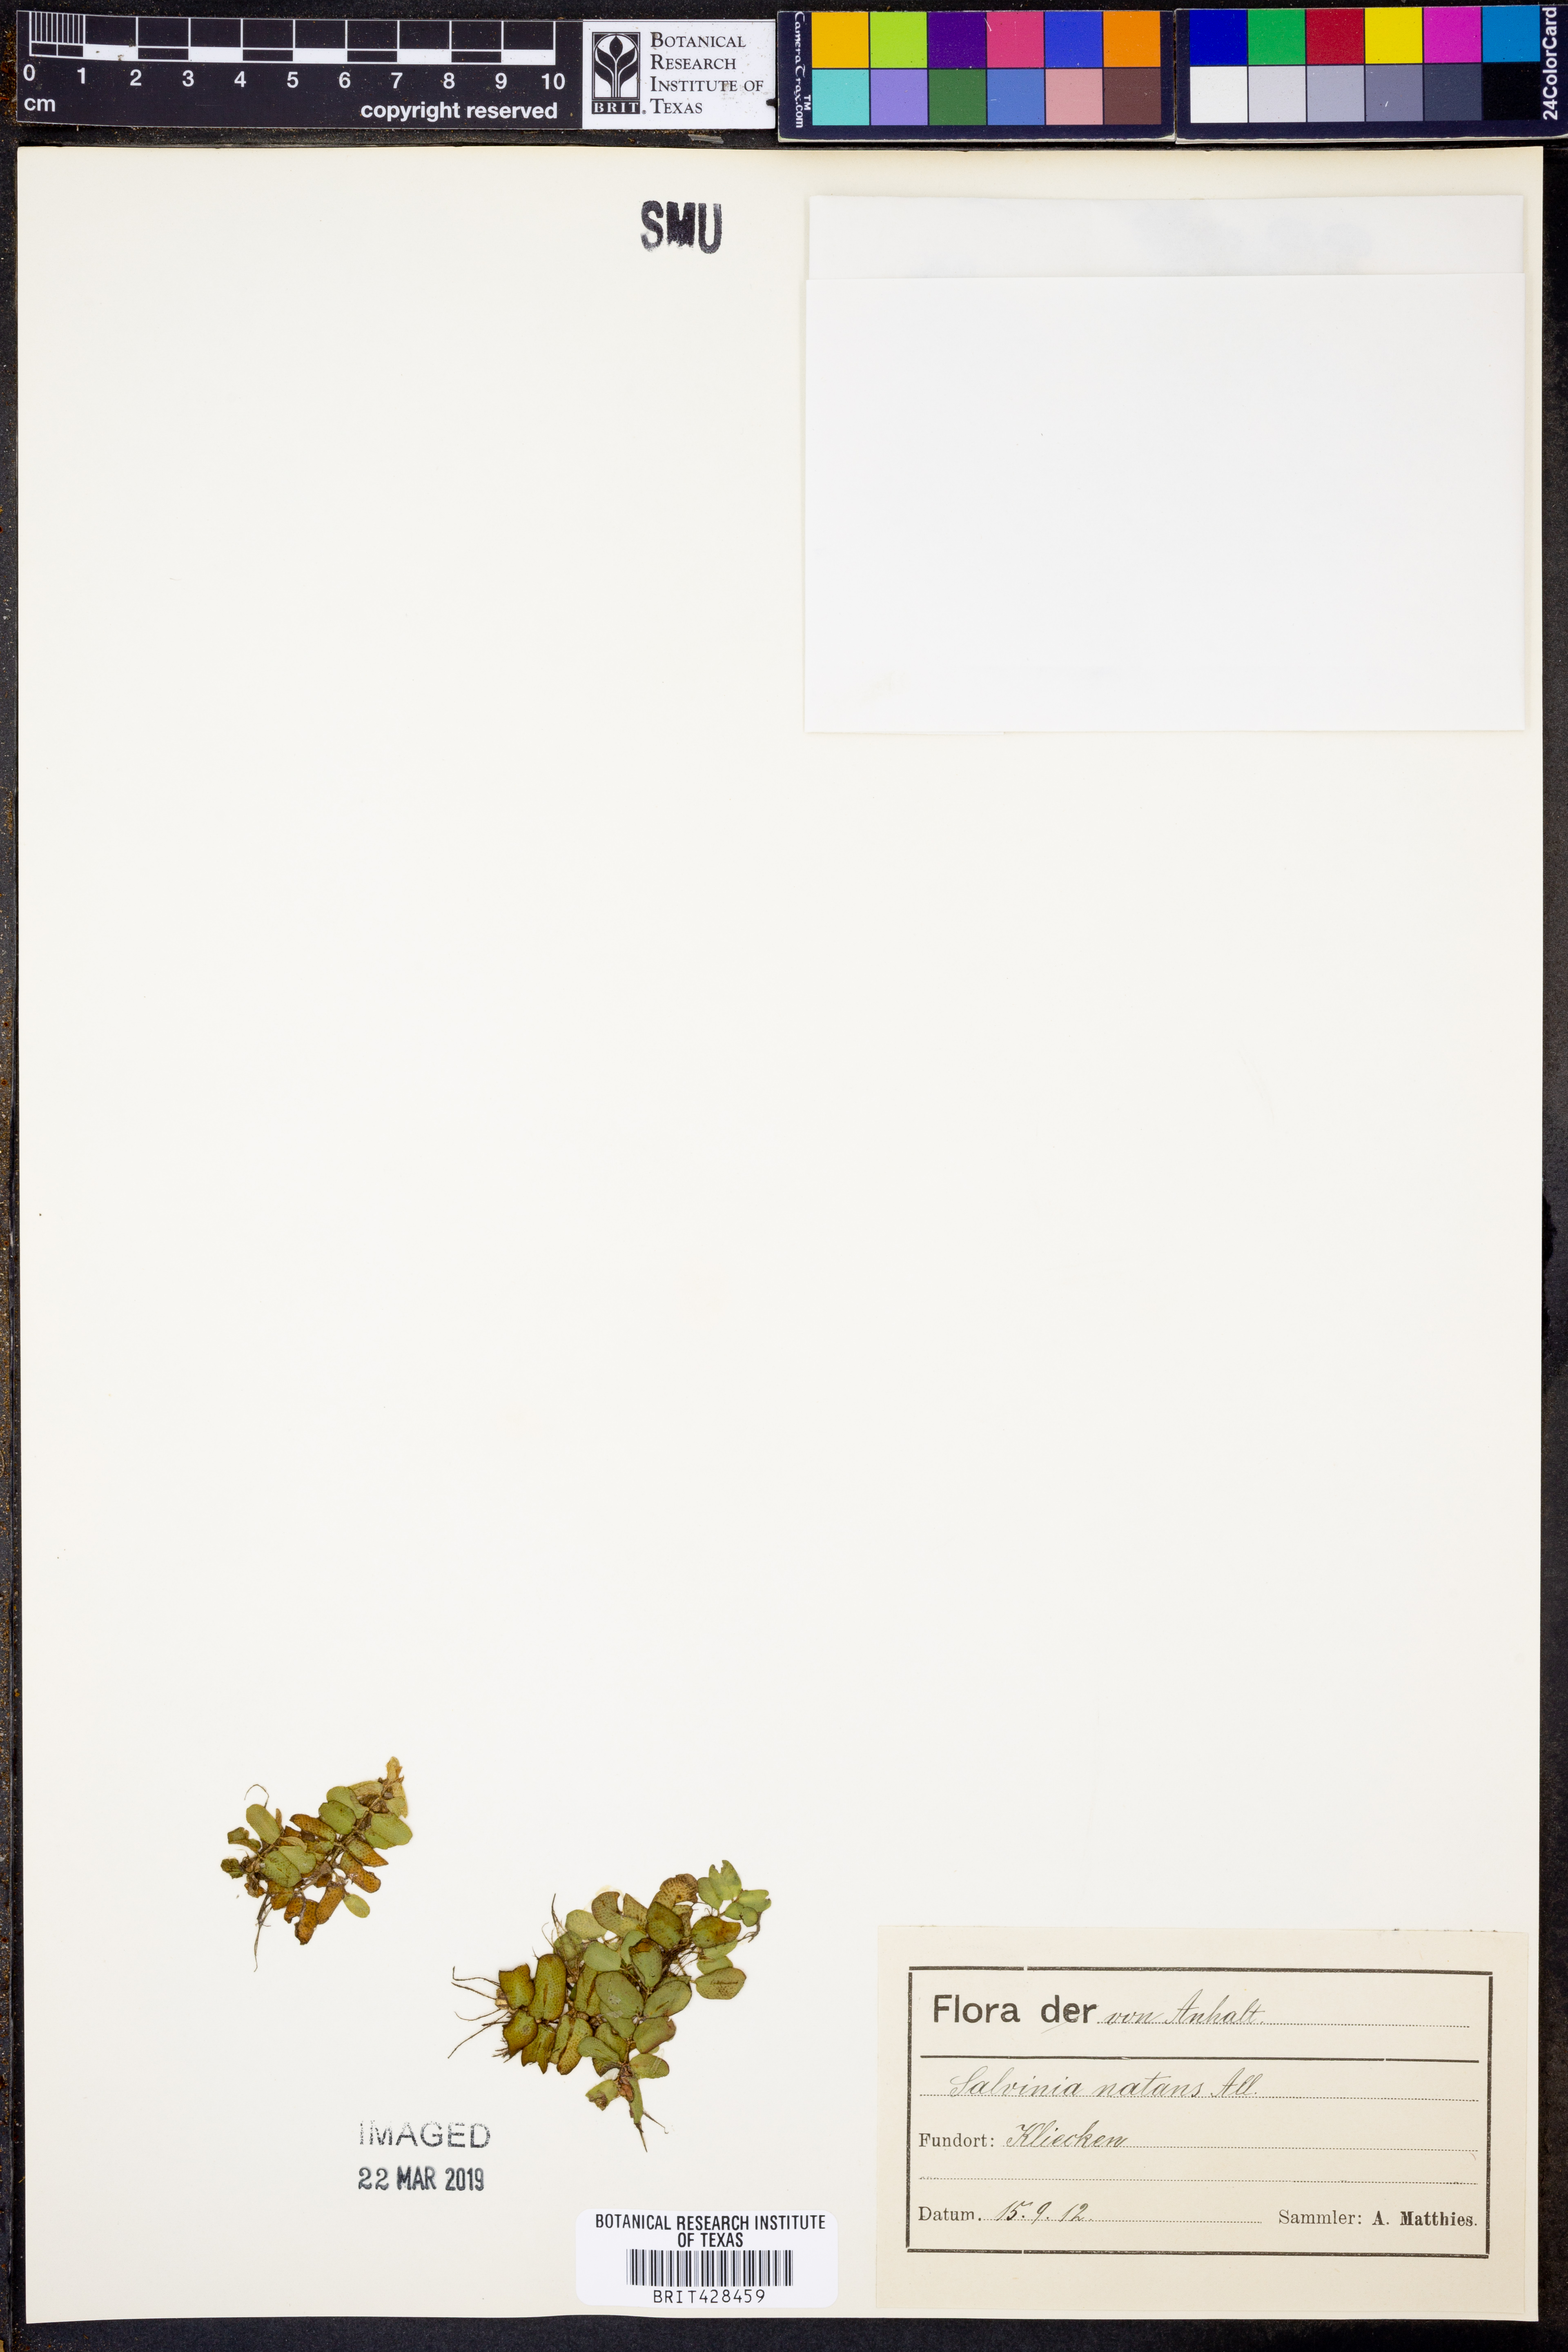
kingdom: Plantae
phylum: Tracheophyta
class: Polypodiopsida
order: Salviniales
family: Salviniaceae
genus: Salvinia
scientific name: Salvinia natans
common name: Floating fern
